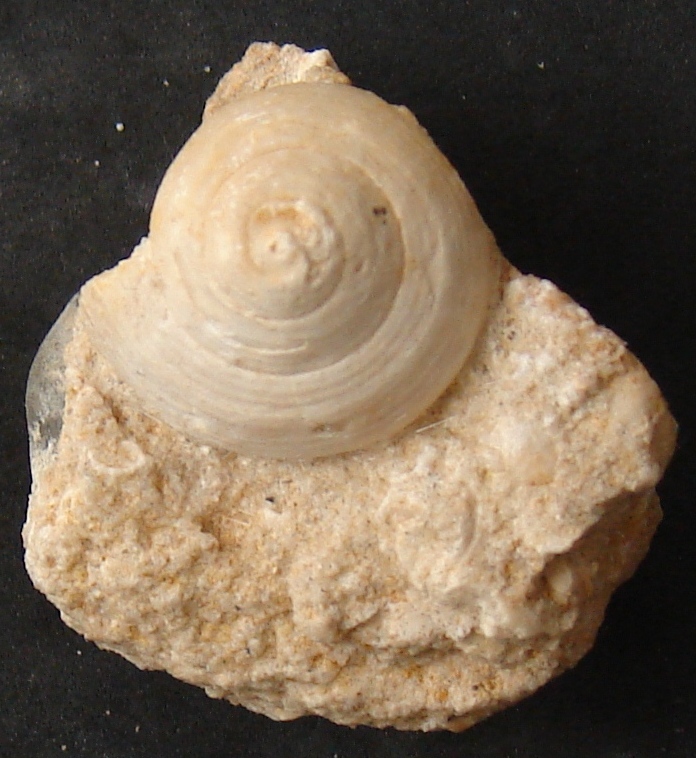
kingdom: Animalia
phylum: Mollusca
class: Gastropoda
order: Pleurotomariida
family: Trochotomidae
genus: Trochotoma
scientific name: Trochotoma vetusta
